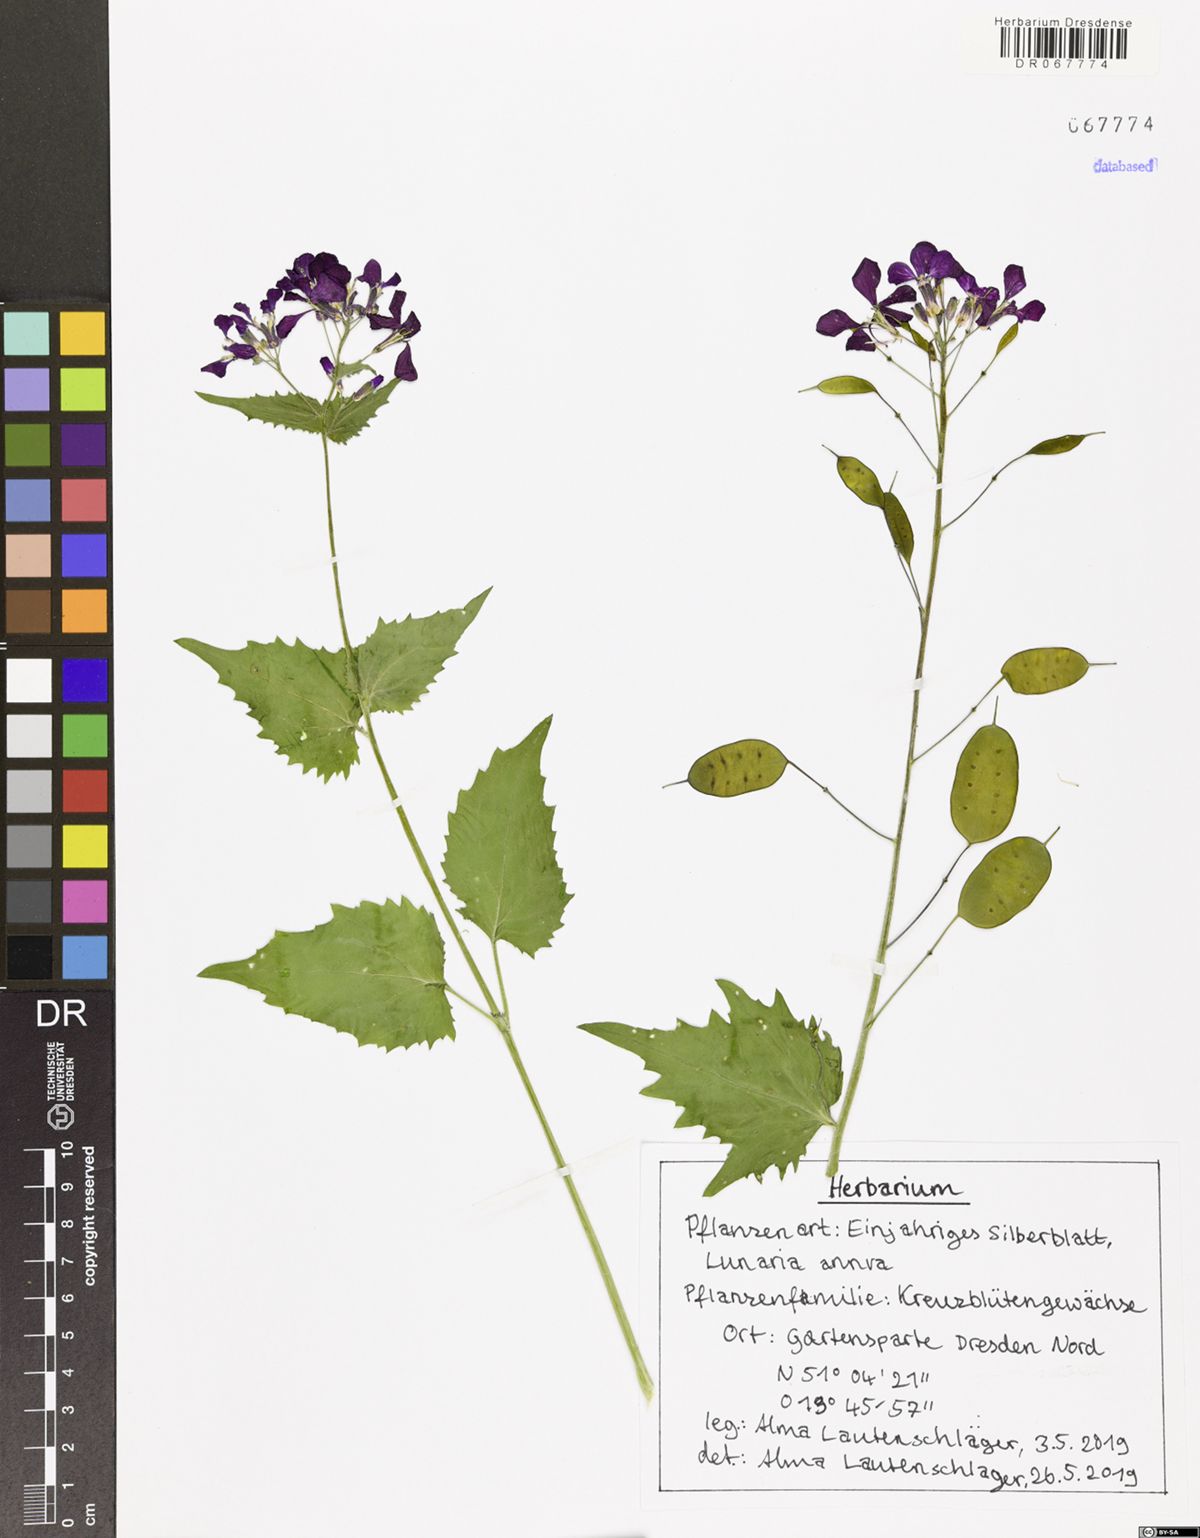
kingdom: Plantae
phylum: Tracheophyta
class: Magnoliopsida
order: Brassicales
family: Brassicaceae
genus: Lunaria
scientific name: Lunaria annua
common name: Honesty
